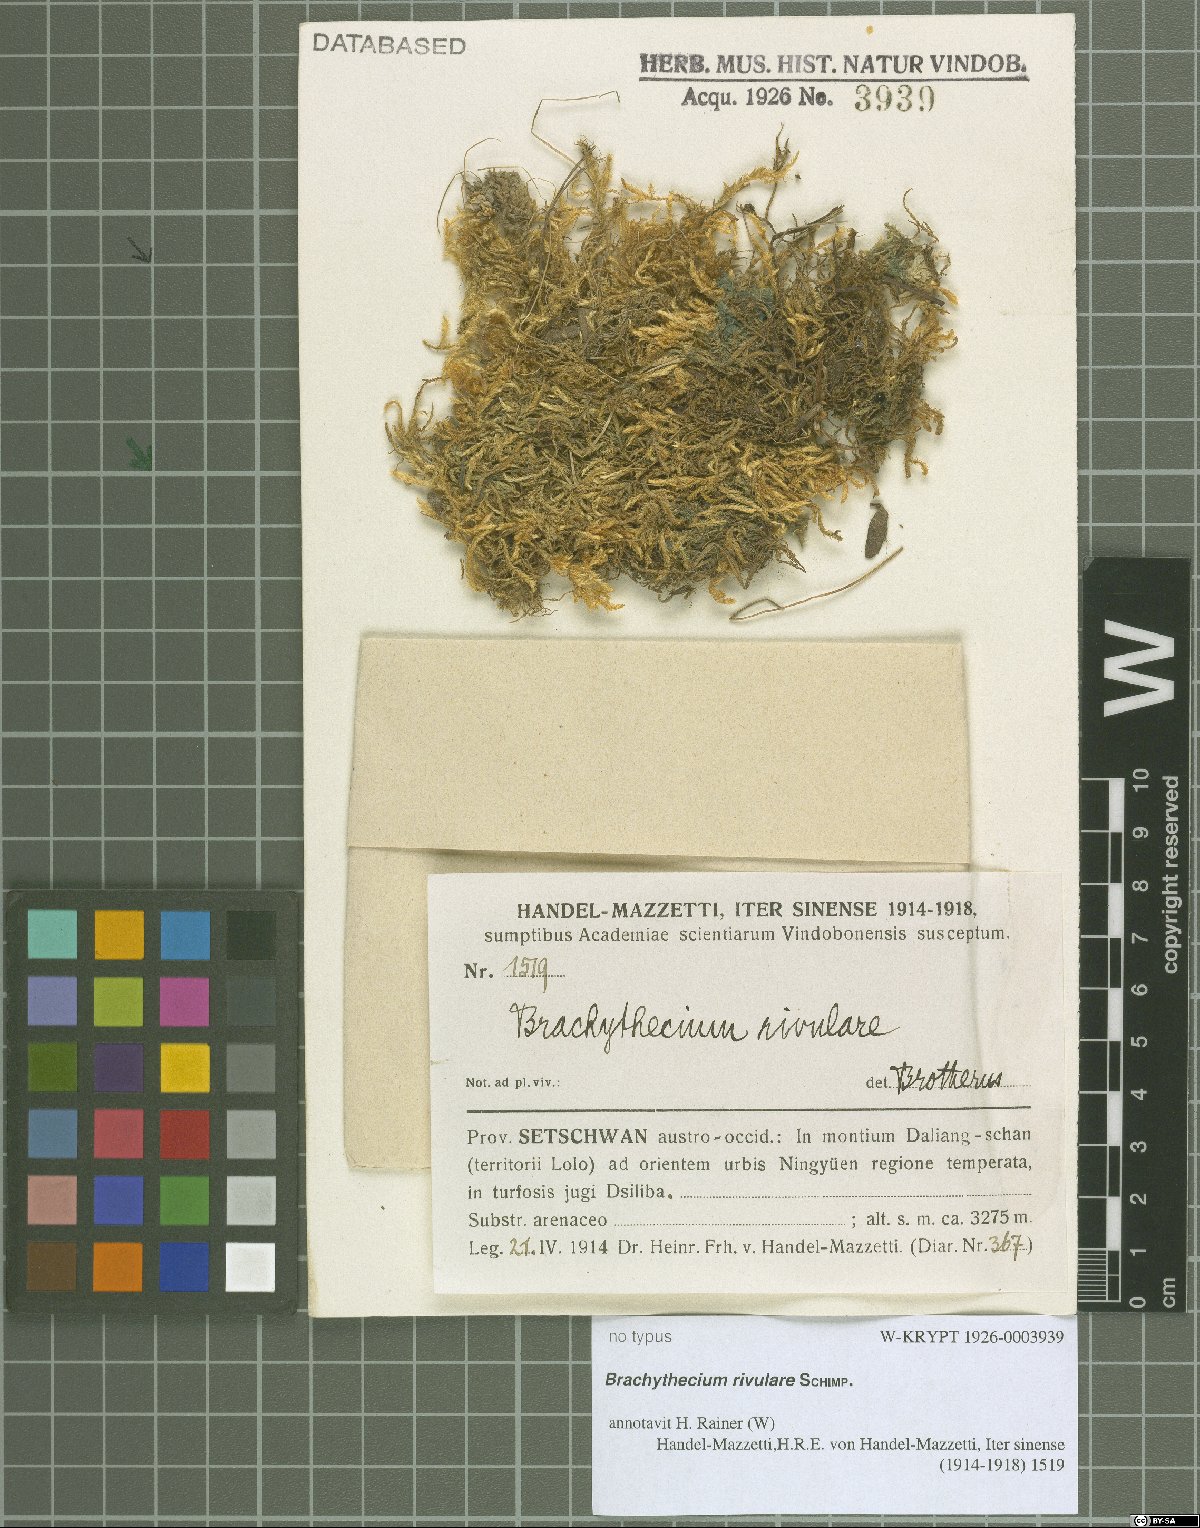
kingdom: Plantae
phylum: Bryophyta
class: Bryopsida
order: Hypnales
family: Brachytheciaceae
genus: Brachythecium
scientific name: Brachythecium rivulare
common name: River ragged moss
